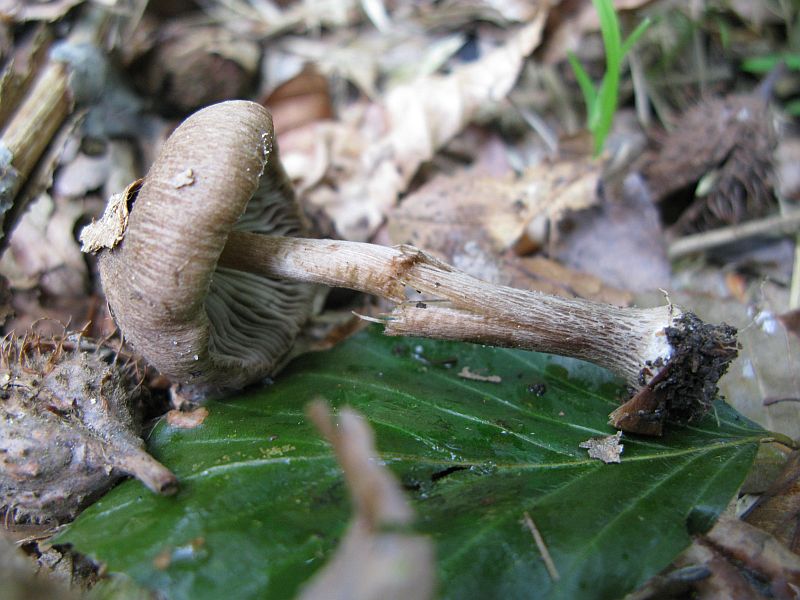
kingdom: Fungi
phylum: Basidiomycota
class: Agaricomycetes
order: Agaricales
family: Inocybaceae
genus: Inocybe
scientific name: Inocybe
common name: trævlhat
